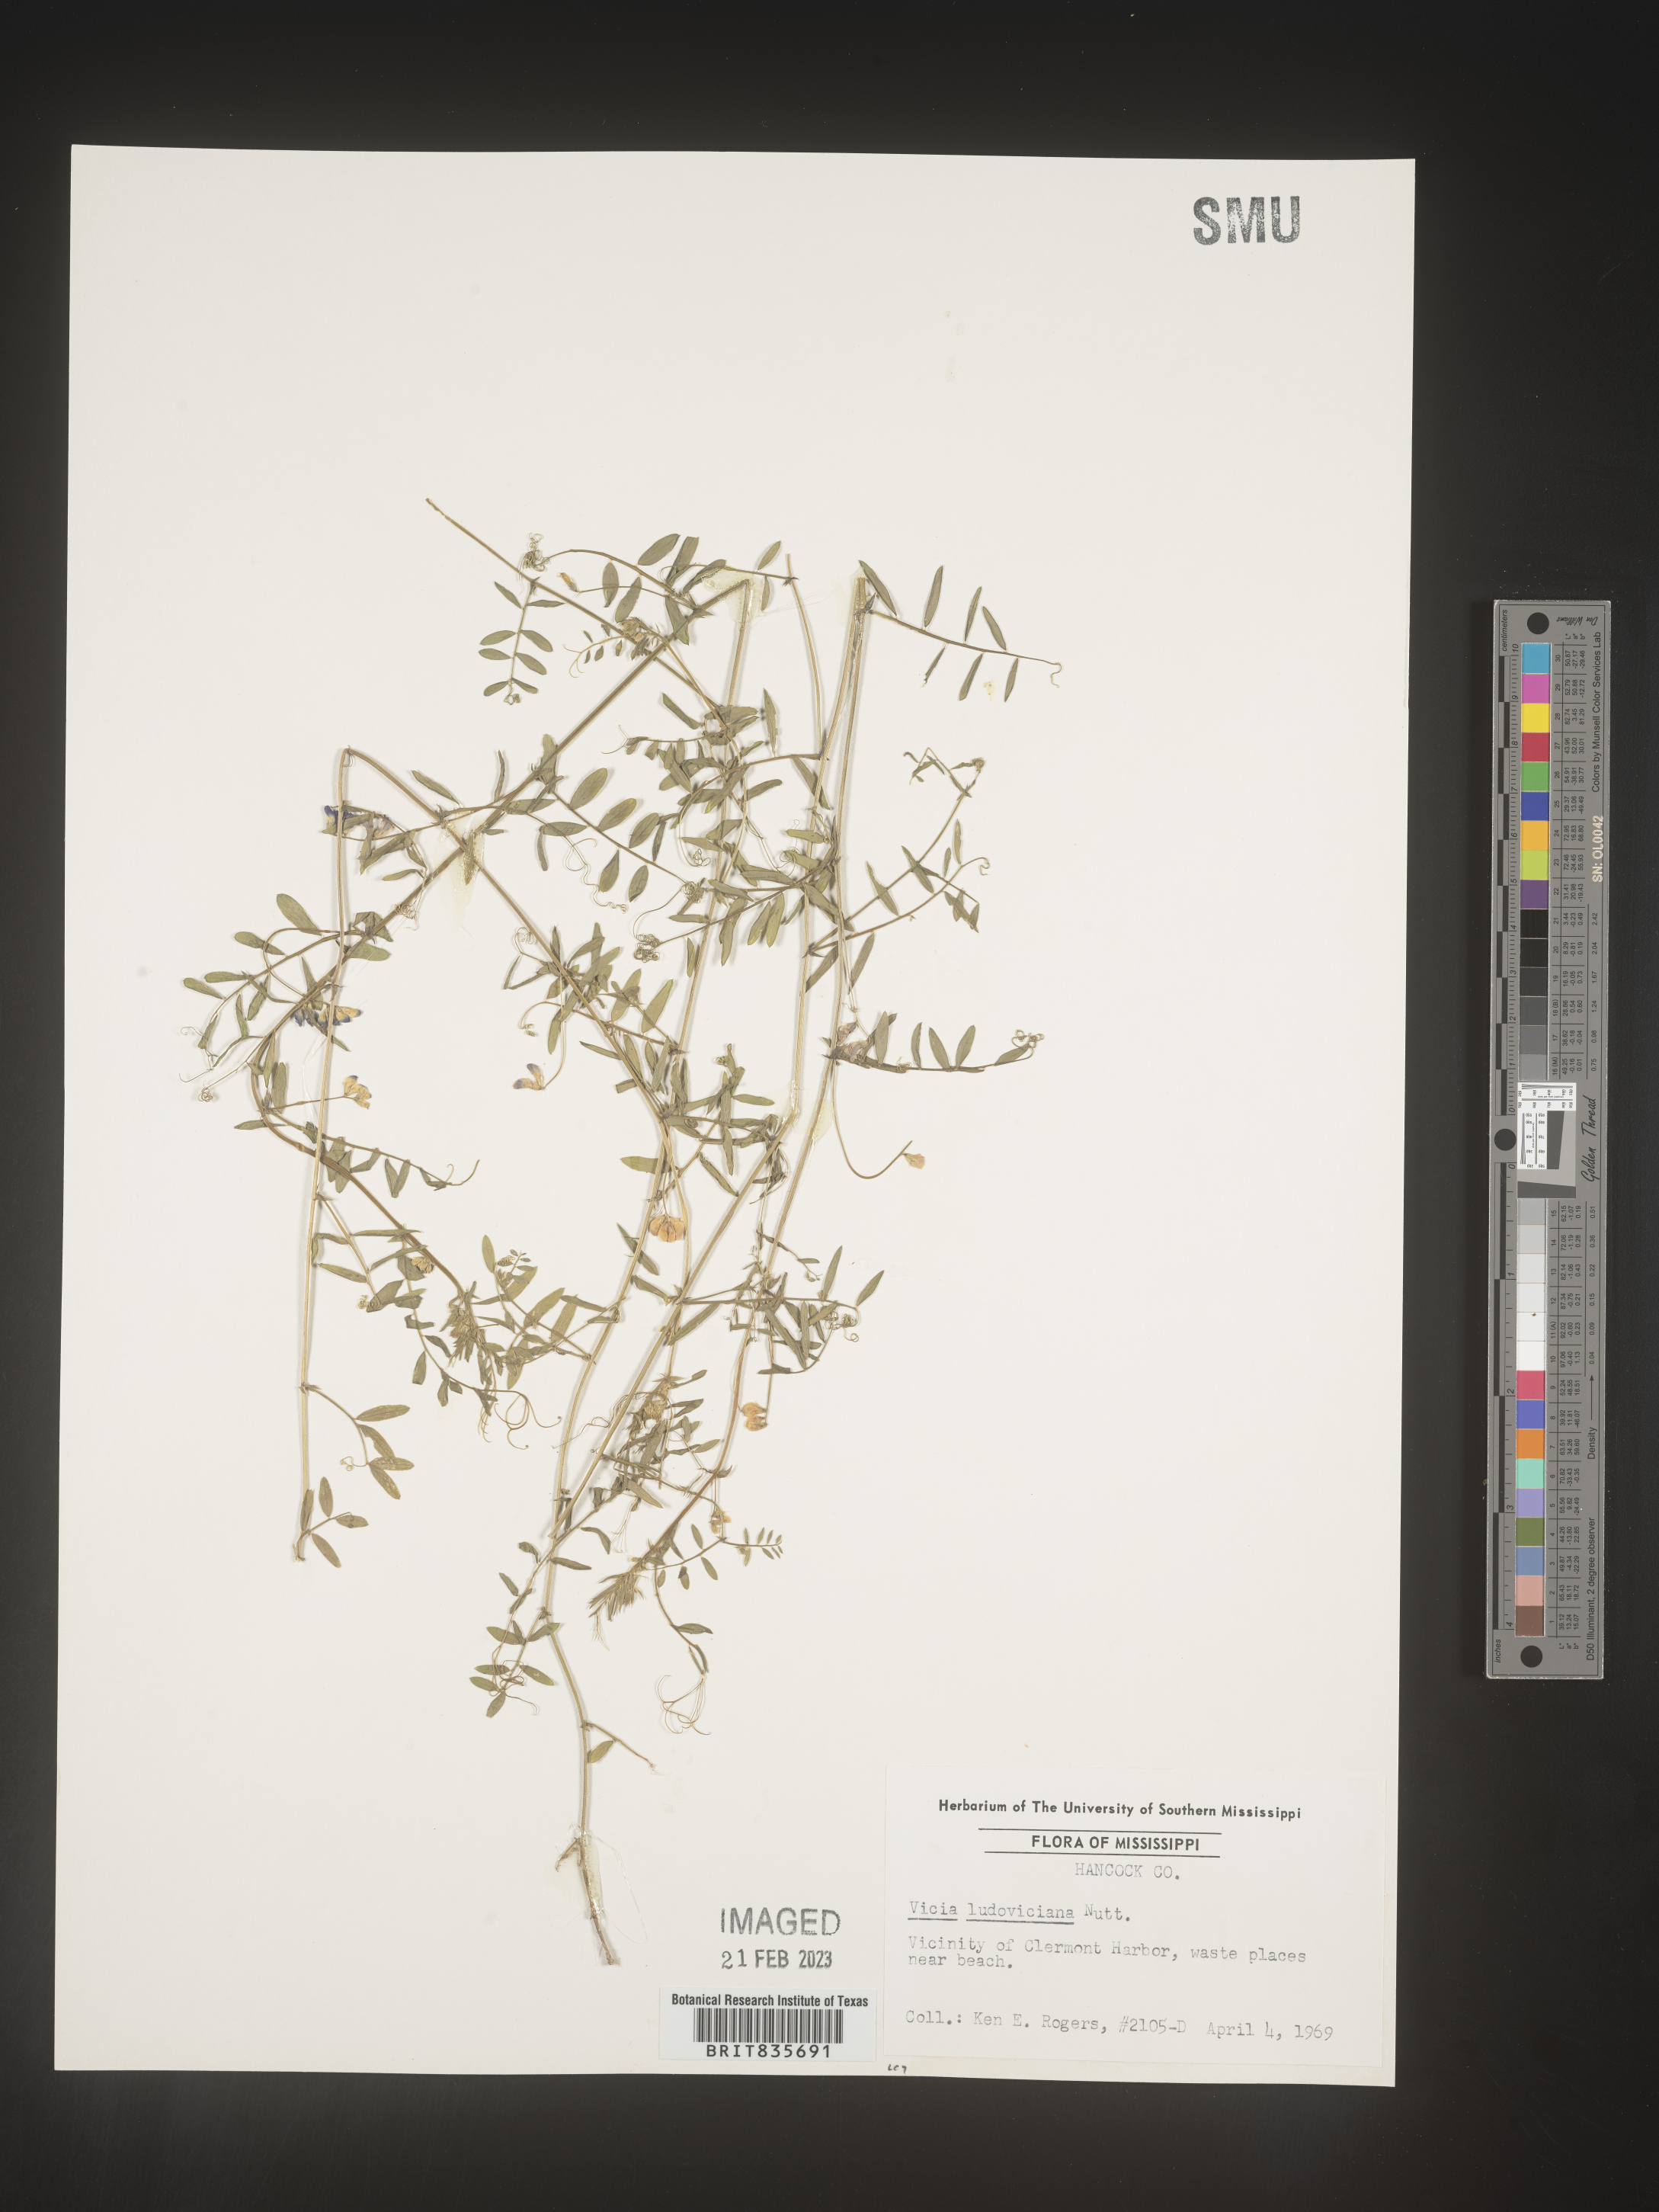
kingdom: Plantae
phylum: Tracheophyta
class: Magnoliopsida
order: Fabales
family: Fabaceae
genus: Vicia
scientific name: Vicia ludoviciana
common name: Louisiana vetch
